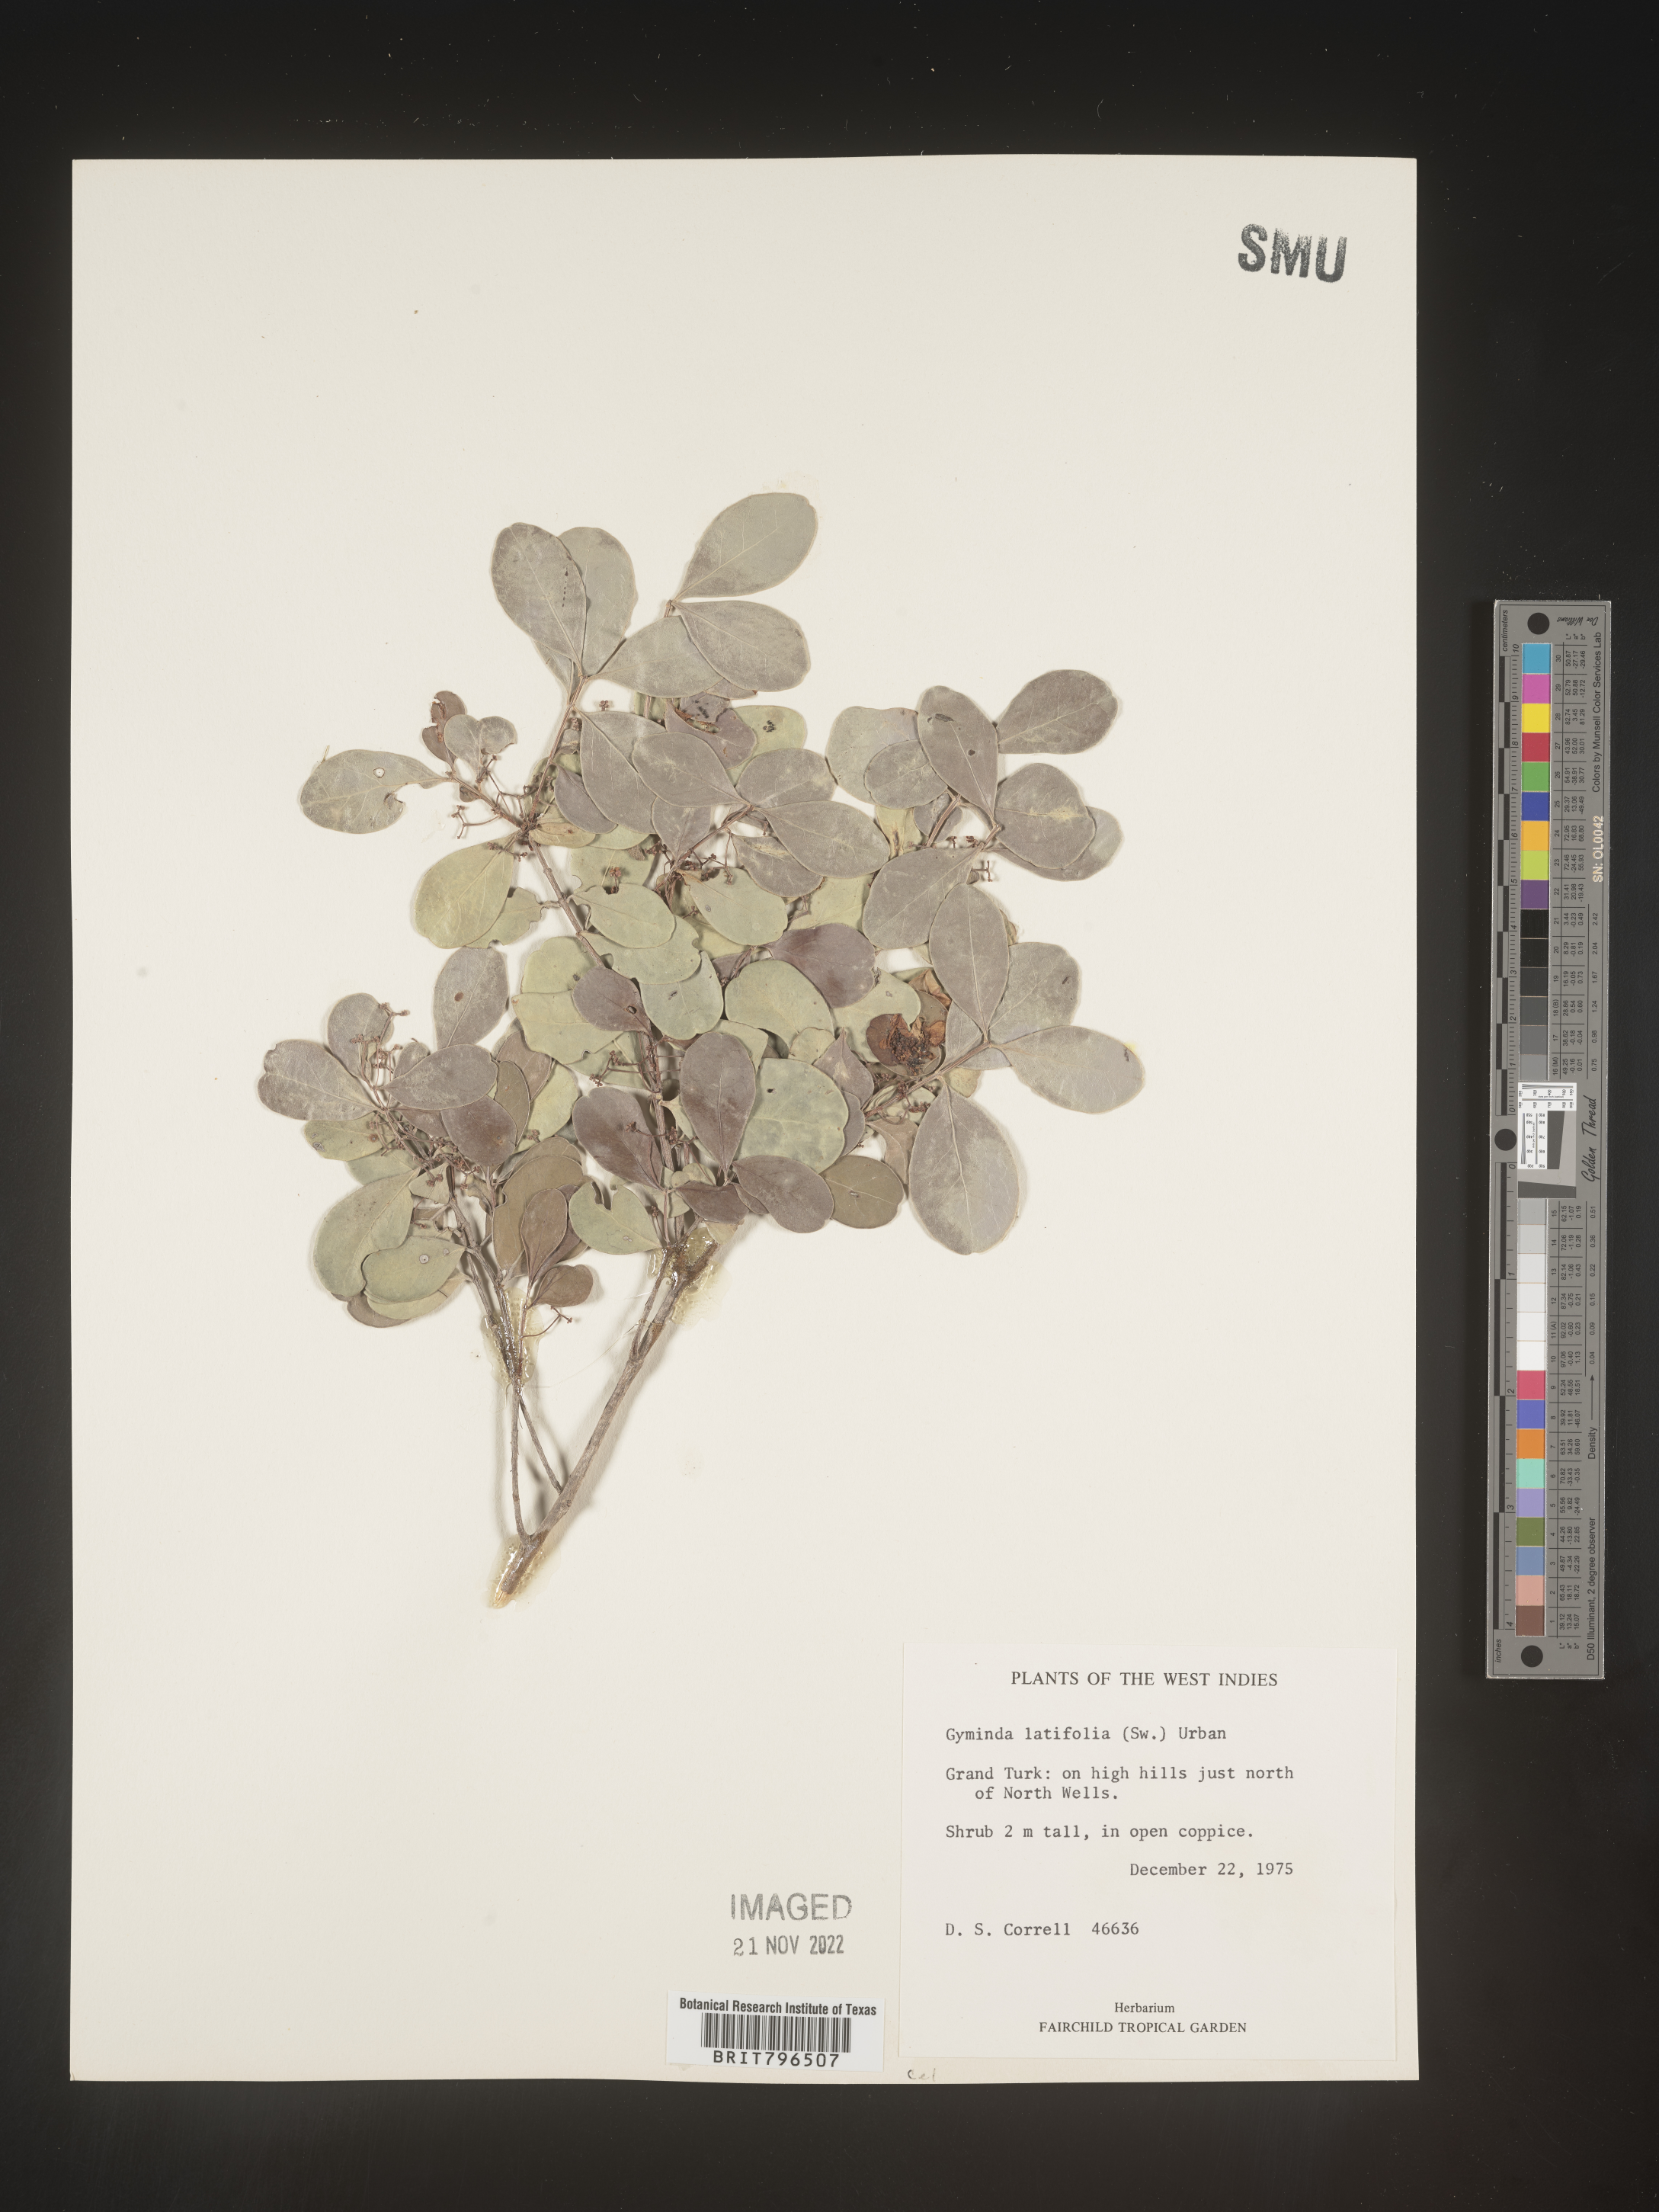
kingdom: Plantae
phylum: Tracheophyta
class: Magnoliopsida
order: Celastrales
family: Celastraceae
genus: Gyminda
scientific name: Gyminda
